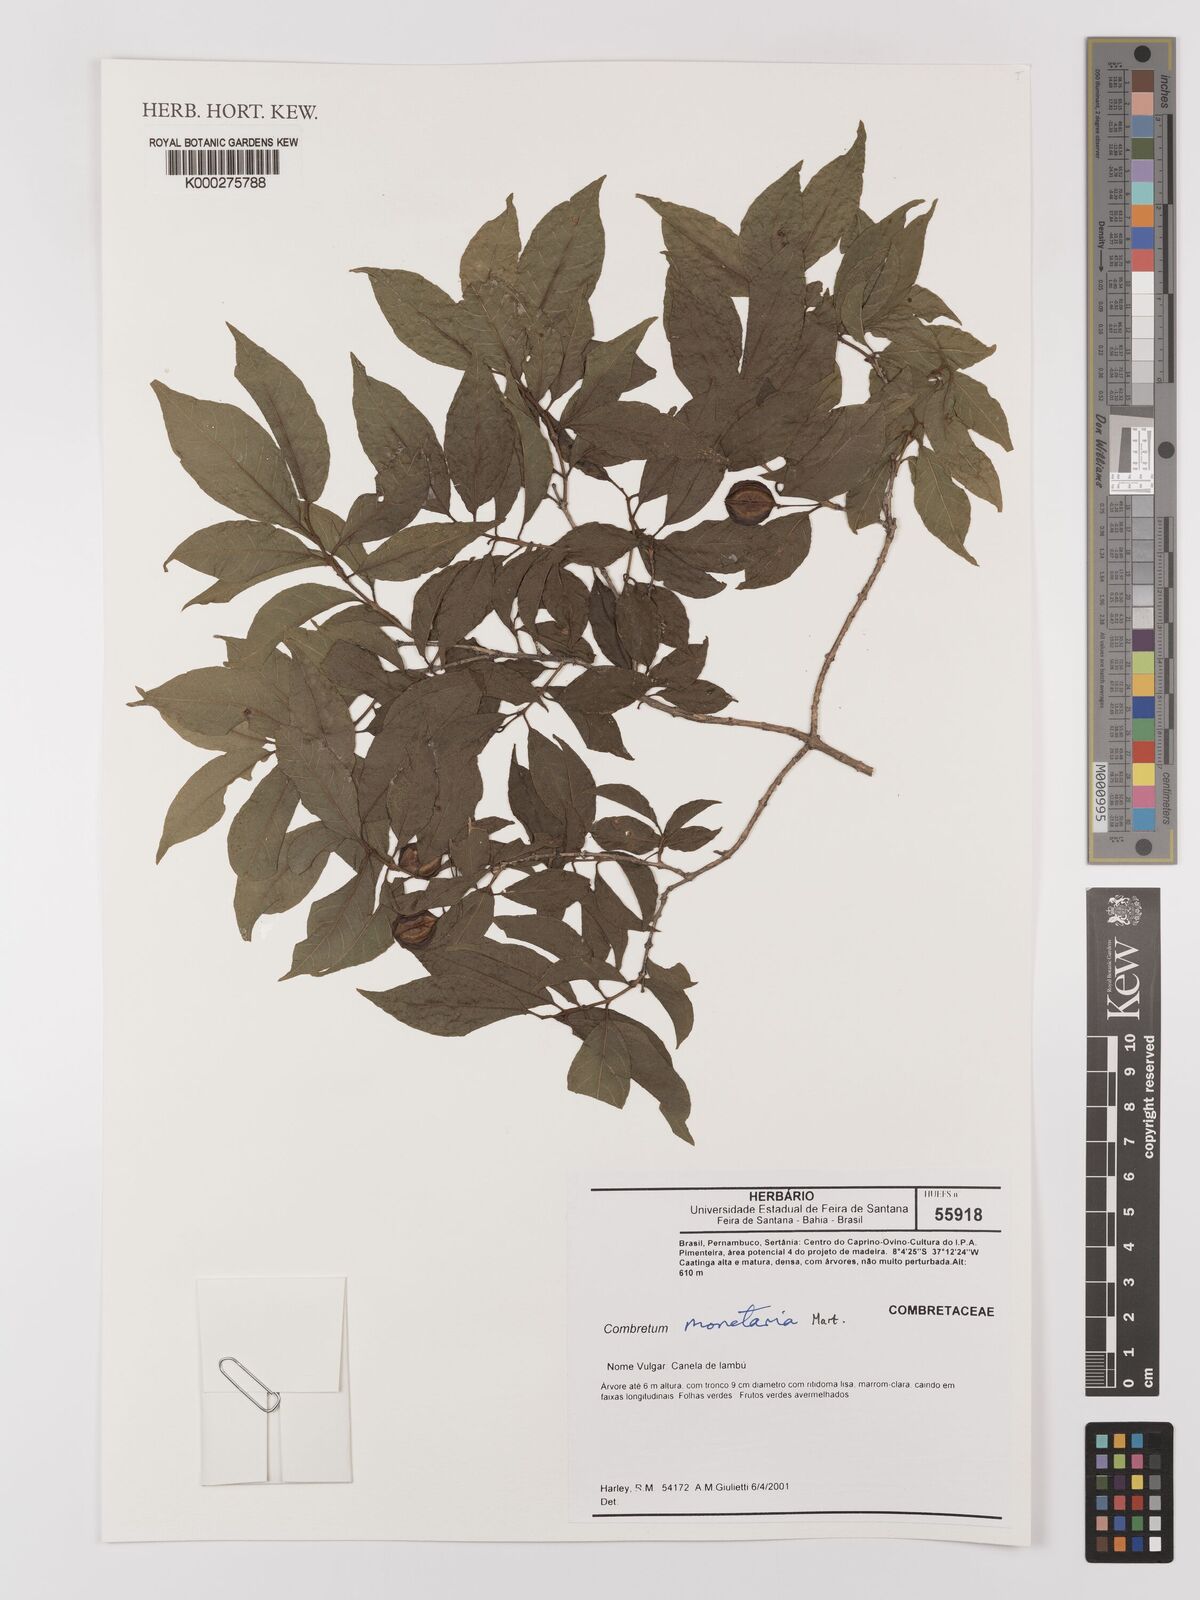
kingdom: Plantae
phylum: Tracheophyta
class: Magnoliopsida
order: Myrtales
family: Combretaceae
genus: Combretum
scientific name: Combretum monetaria
